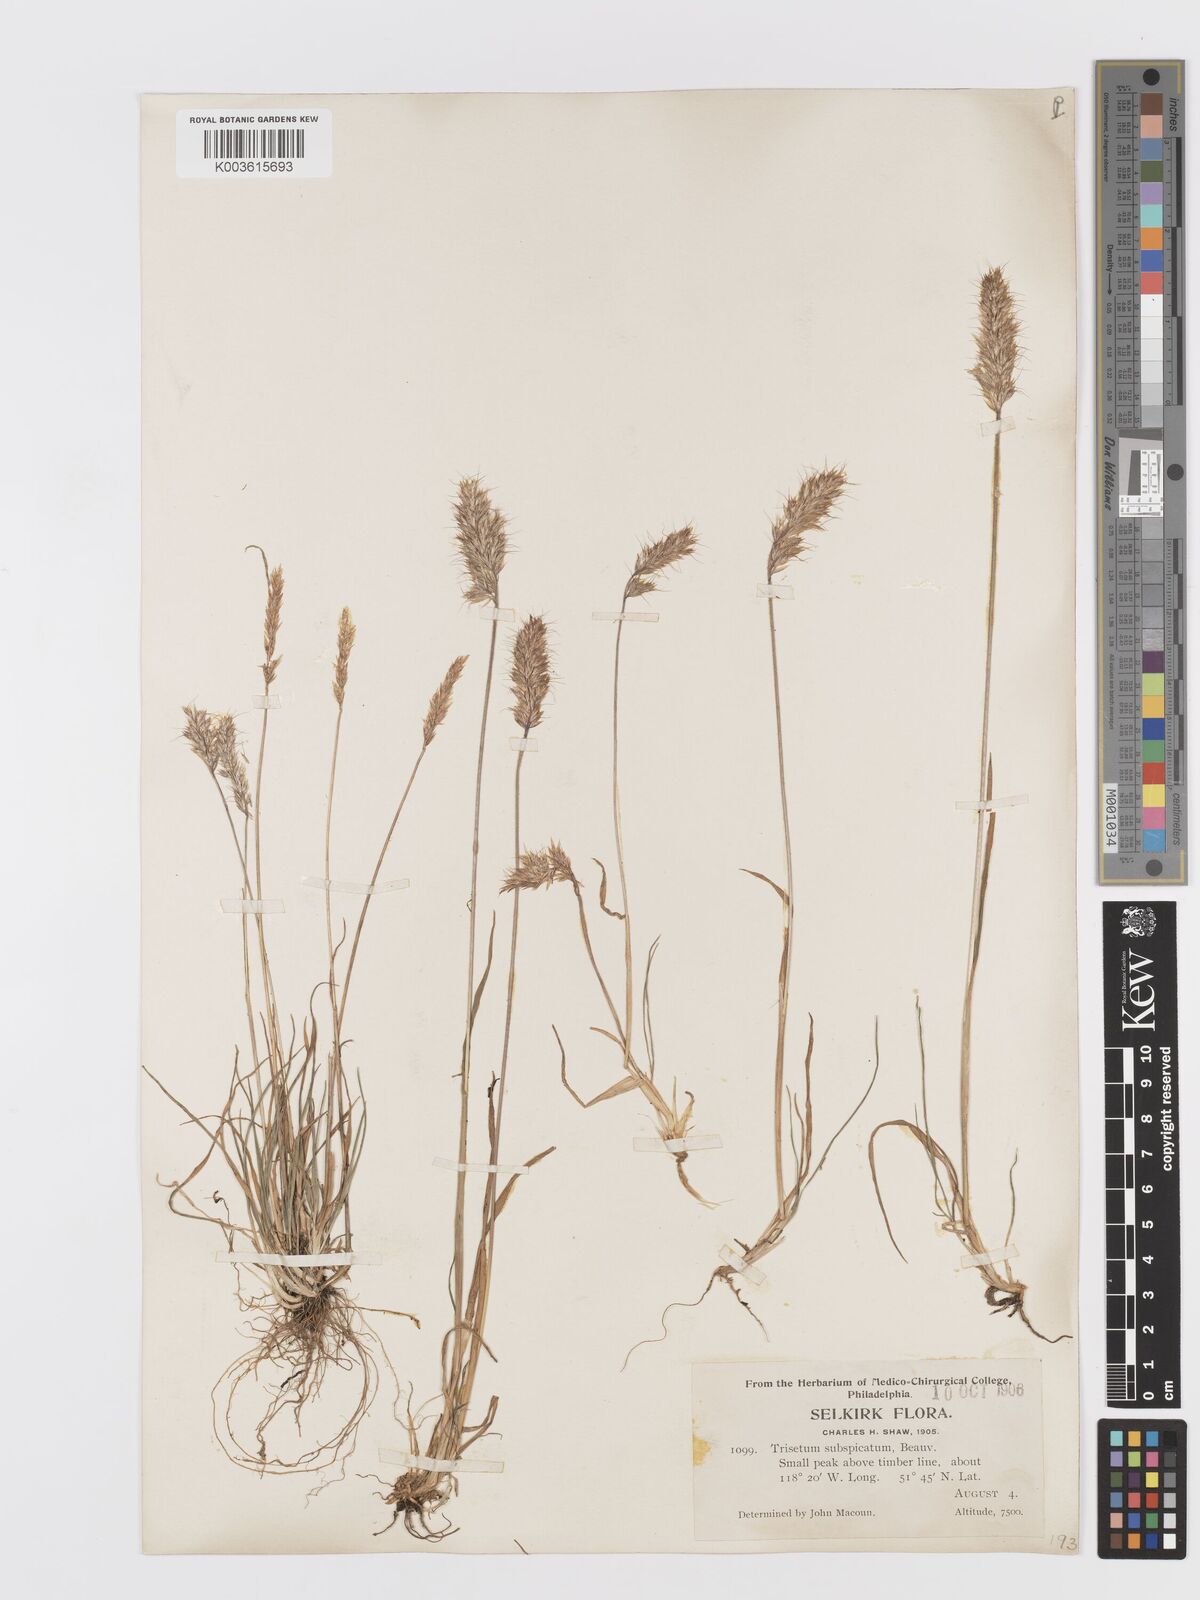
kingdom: Plantae
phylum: Tracheophyta
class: Liliopsida
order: Poales
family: Poaceae
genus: Koeleria
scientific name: Koeleria spicata
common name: Mountain trisetum
